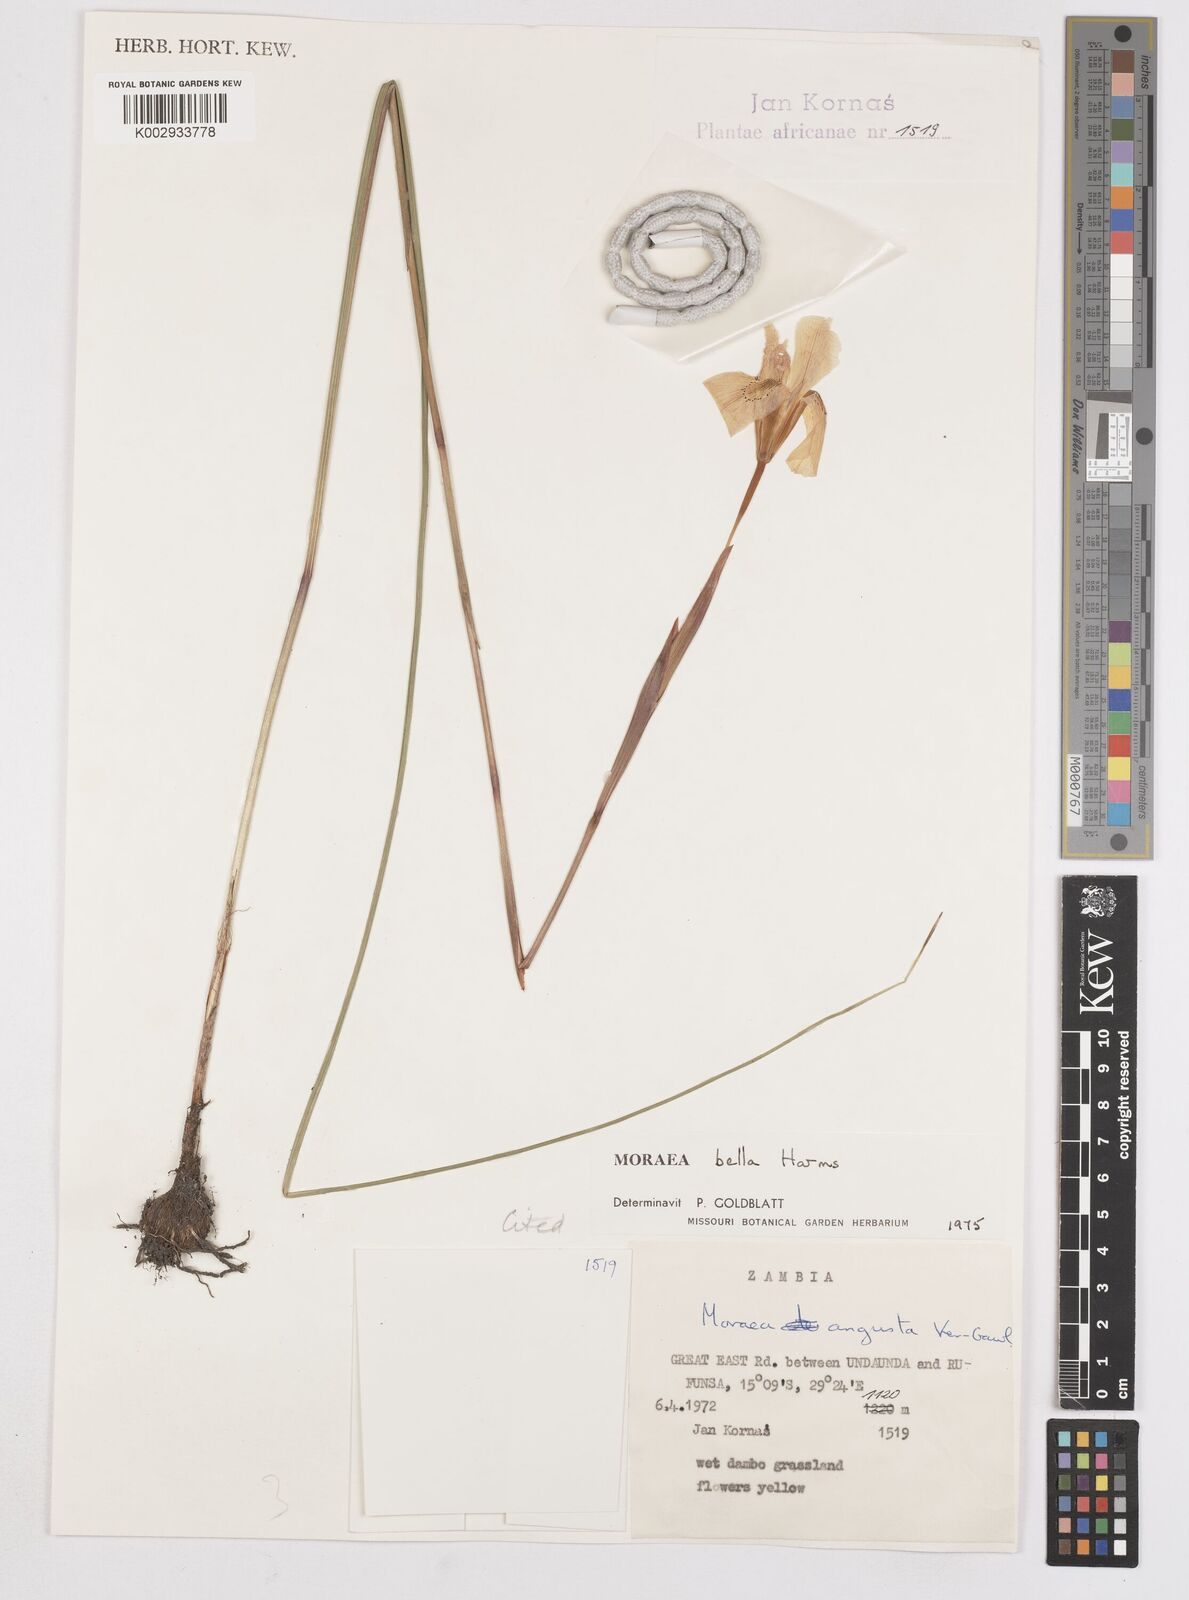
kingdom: Plantae
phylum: Tracheophyta
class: Liliopsida
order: Asparagales
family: Iridaceae
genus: Moraea
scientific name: Moraea bella
